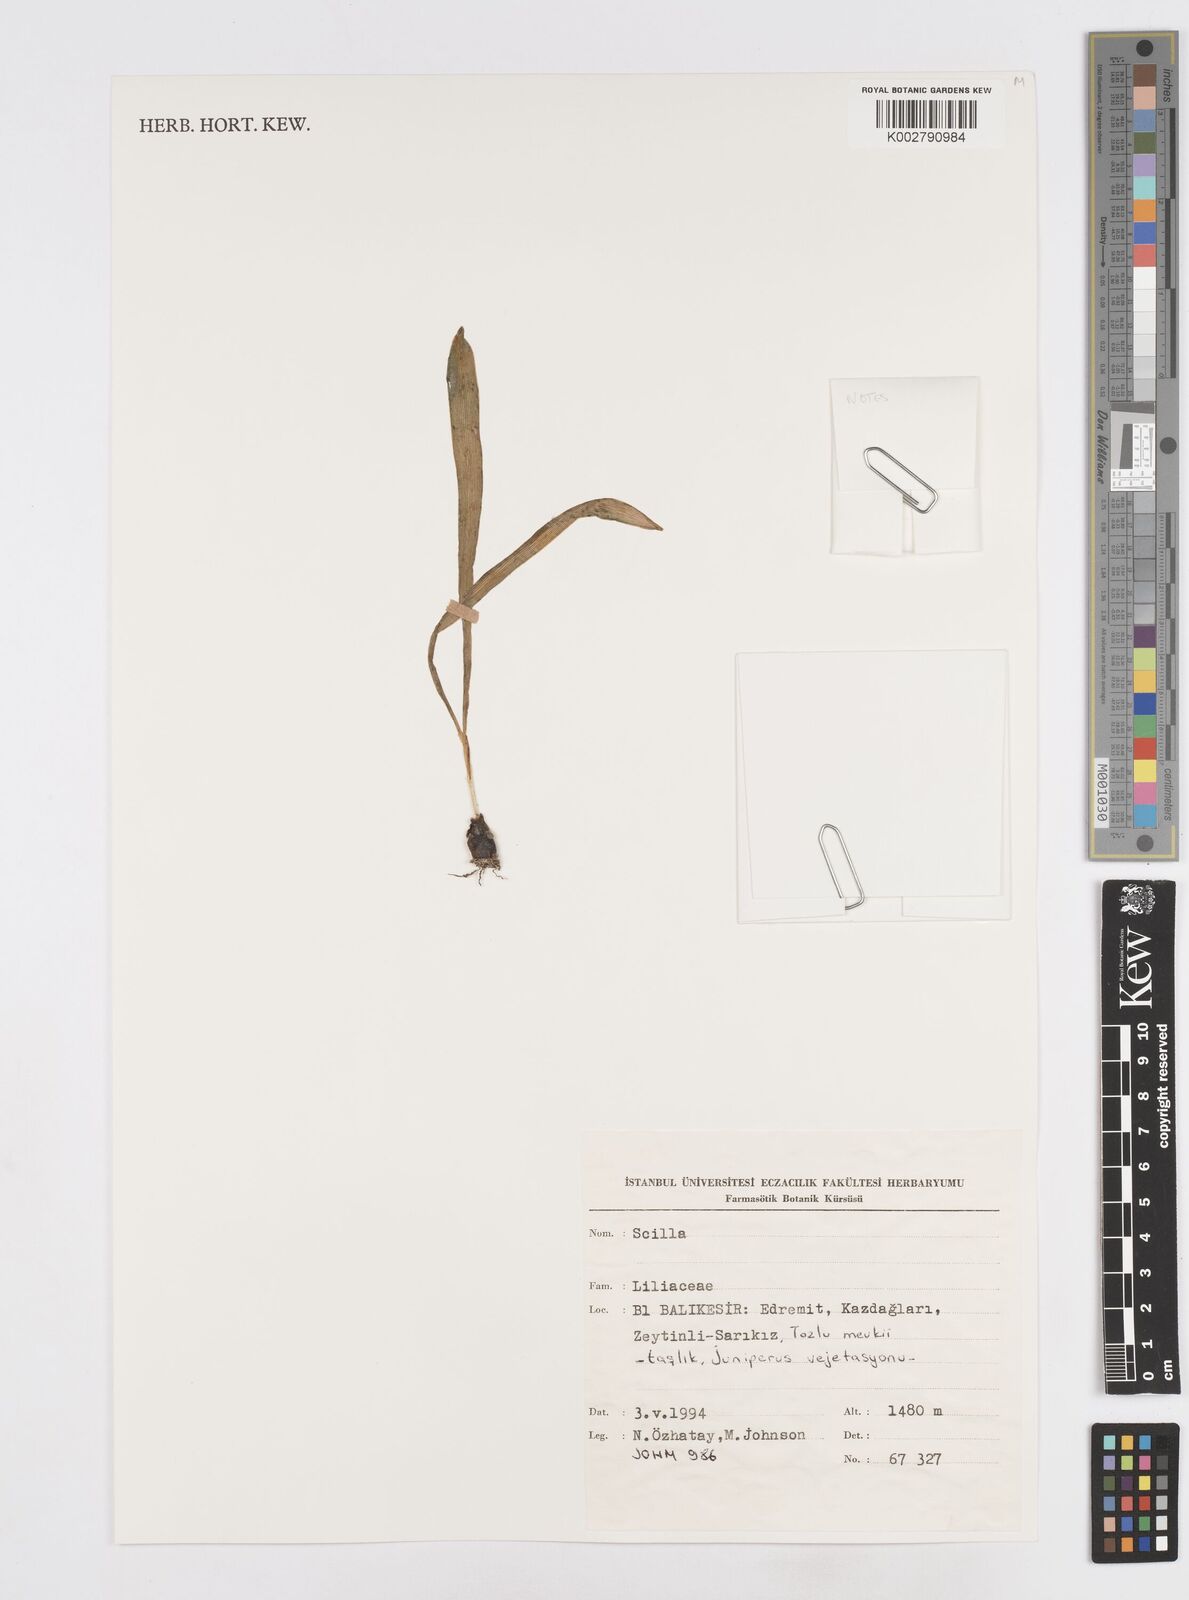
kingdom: Plantae
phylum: Tracheophyta
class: Liliopsida
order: Asparagales
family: Asparagaceae
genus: Scilla
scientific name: Scilla
